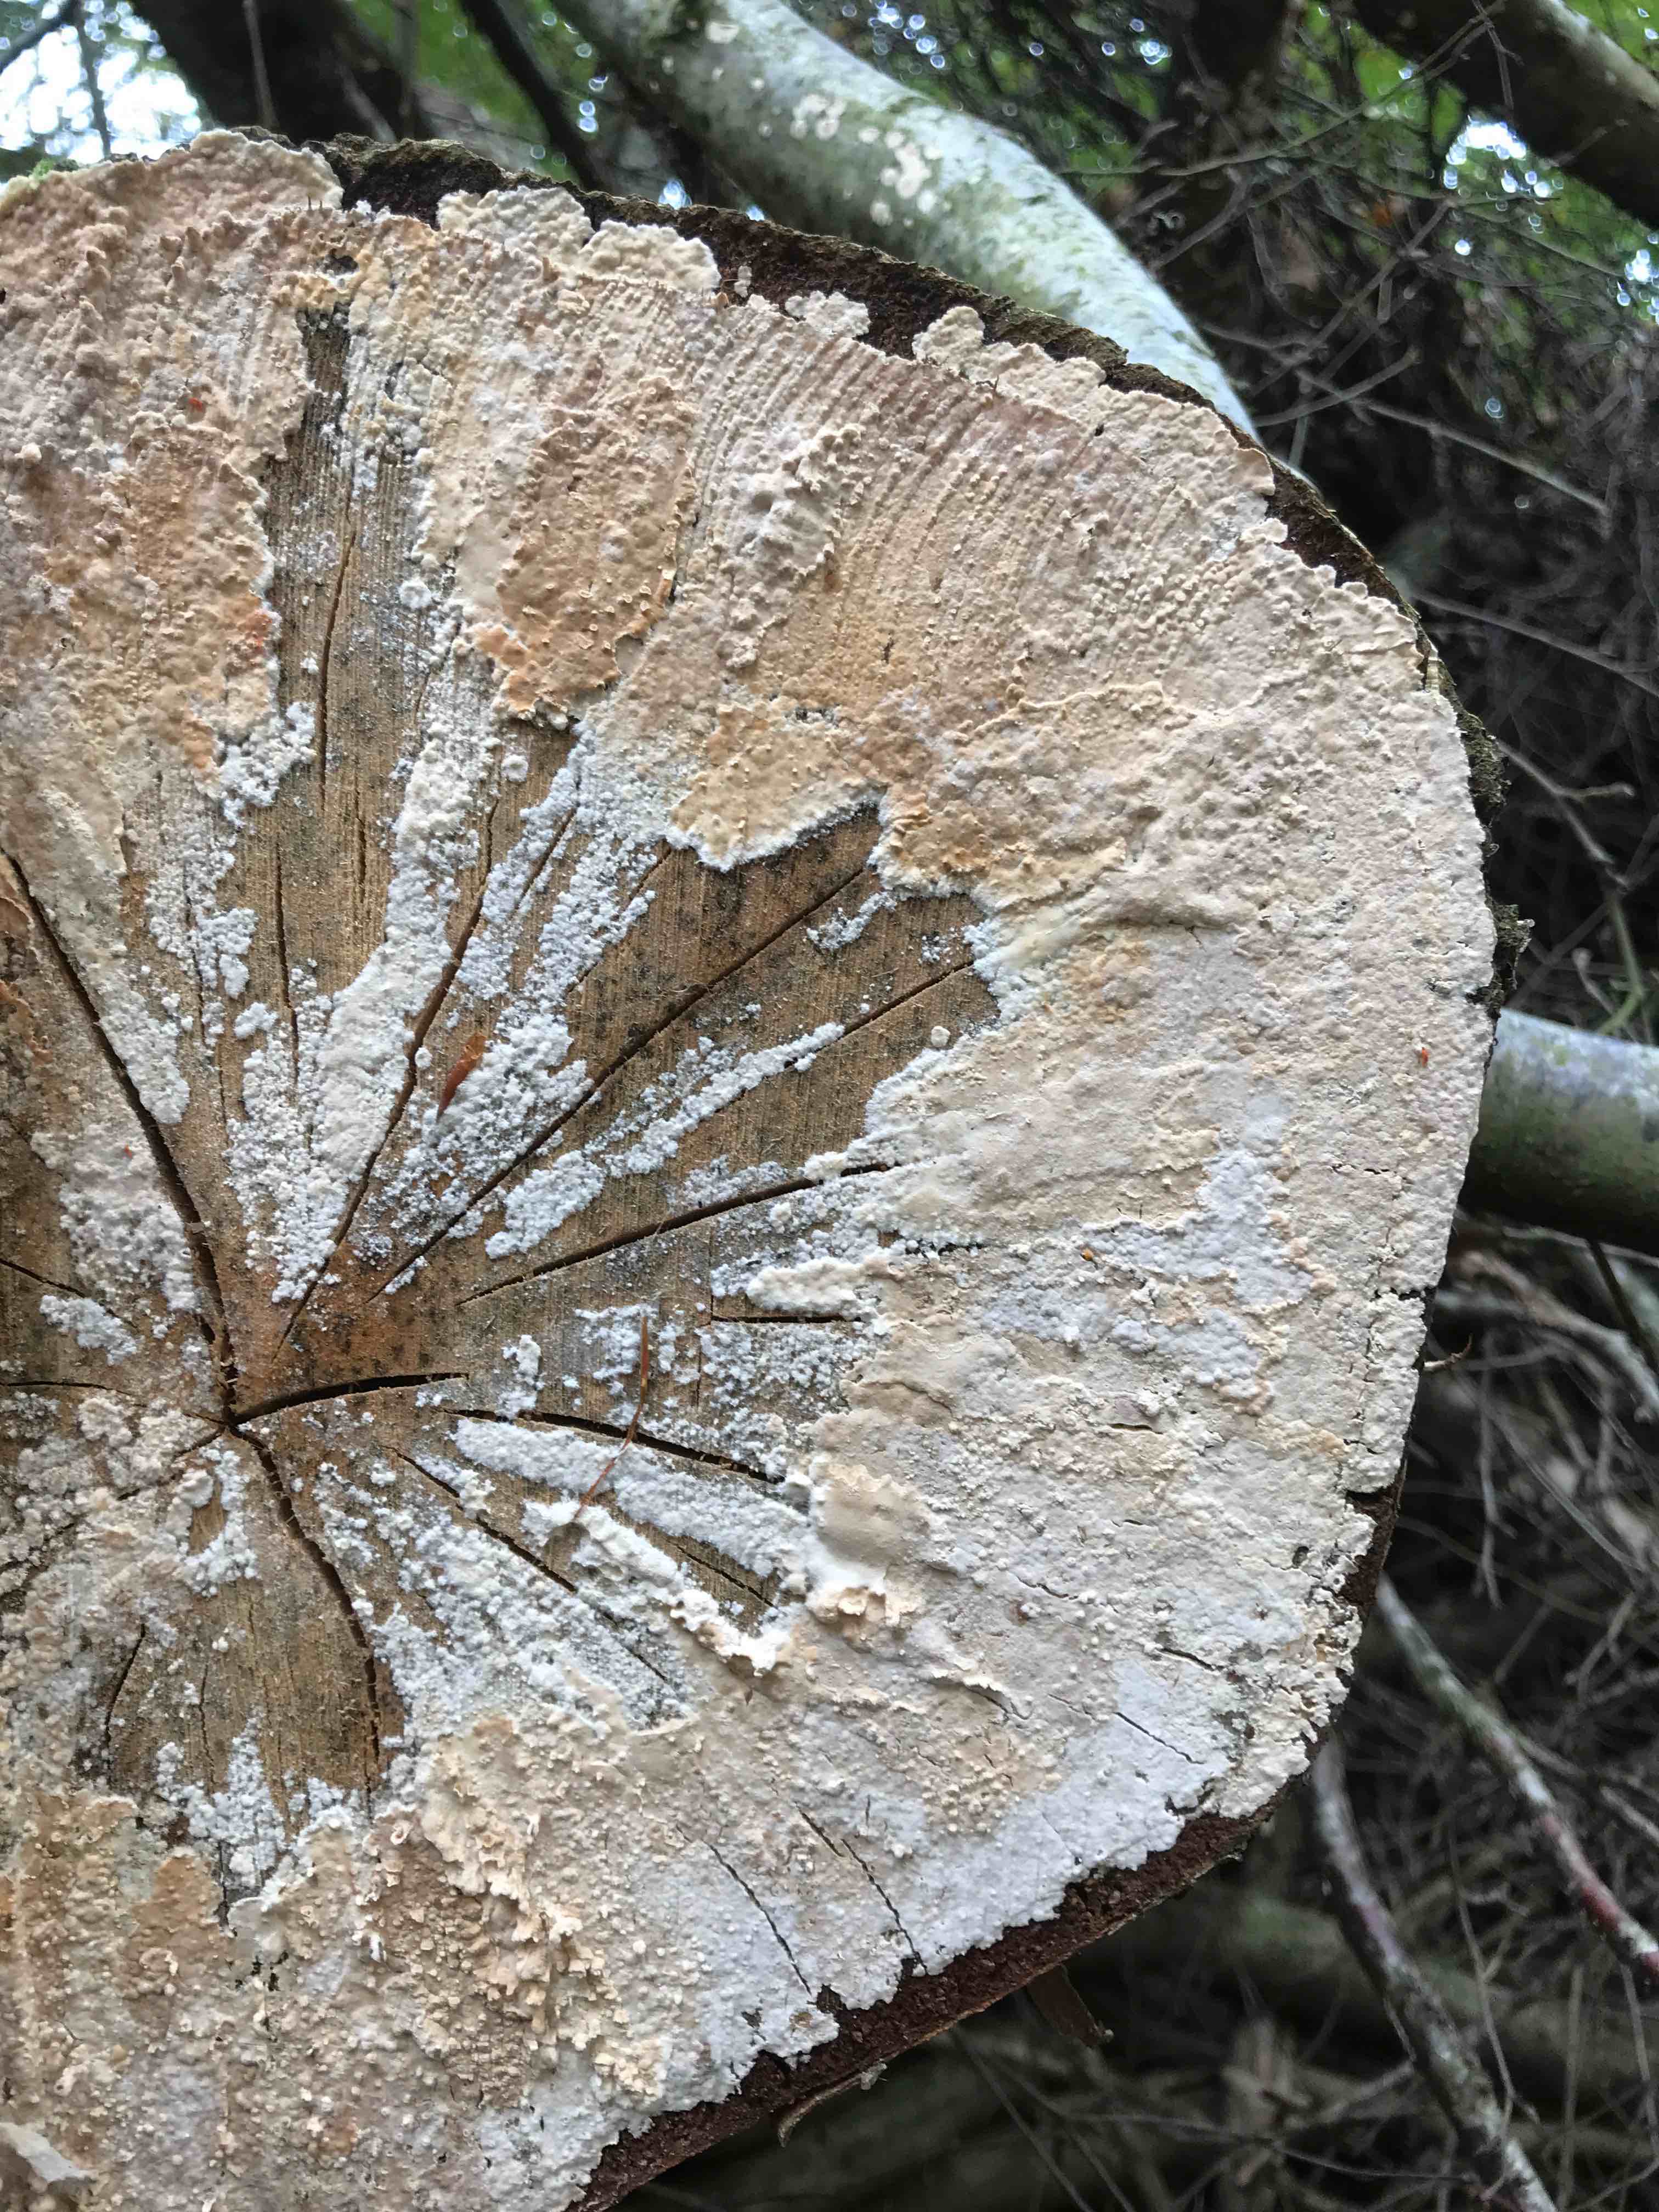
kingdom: Fungi
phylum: Basidiomycota
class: Agaricomycetes
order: Agaricales
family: Physalacriaceae
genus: Cylindrobasidium
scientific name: Cylindrobasidium evolvens
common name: sprækkehinde
